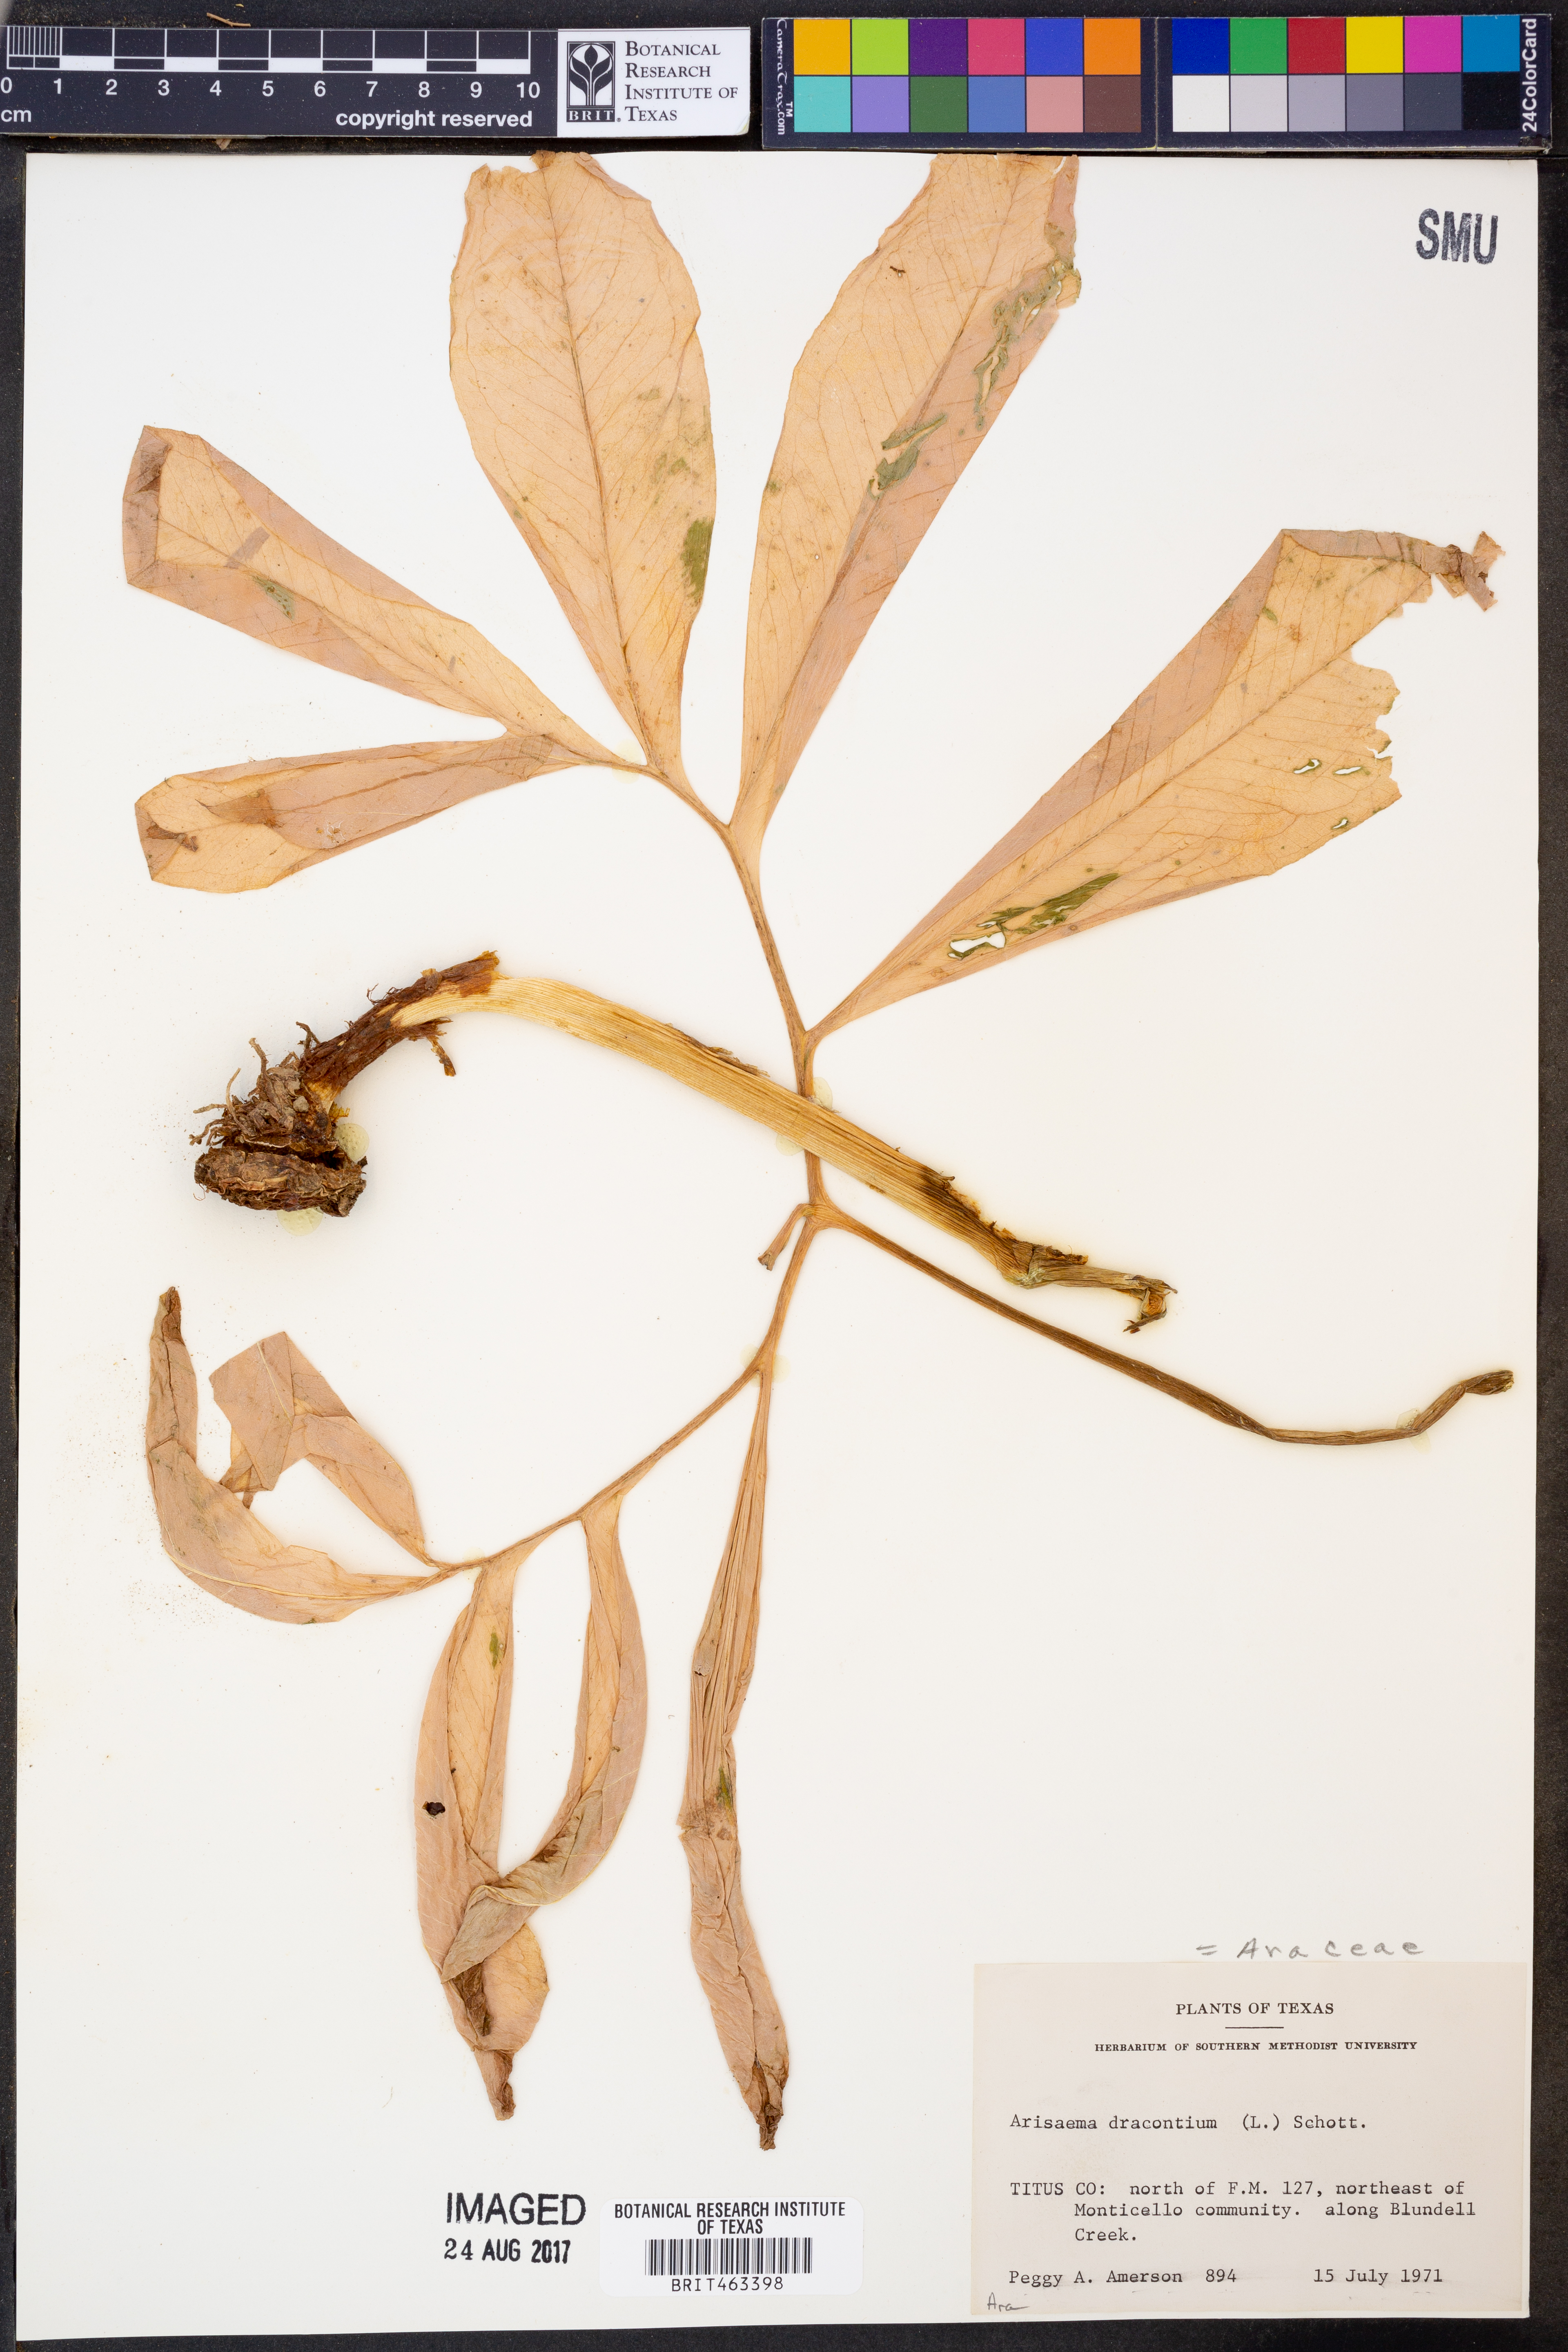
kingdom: Plantae
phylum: Tracheophyta
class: Liliopsida
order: Alismatales
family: Araceae
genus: Arisaema
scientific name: Arisaema dracontium
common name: Dragon-arum
